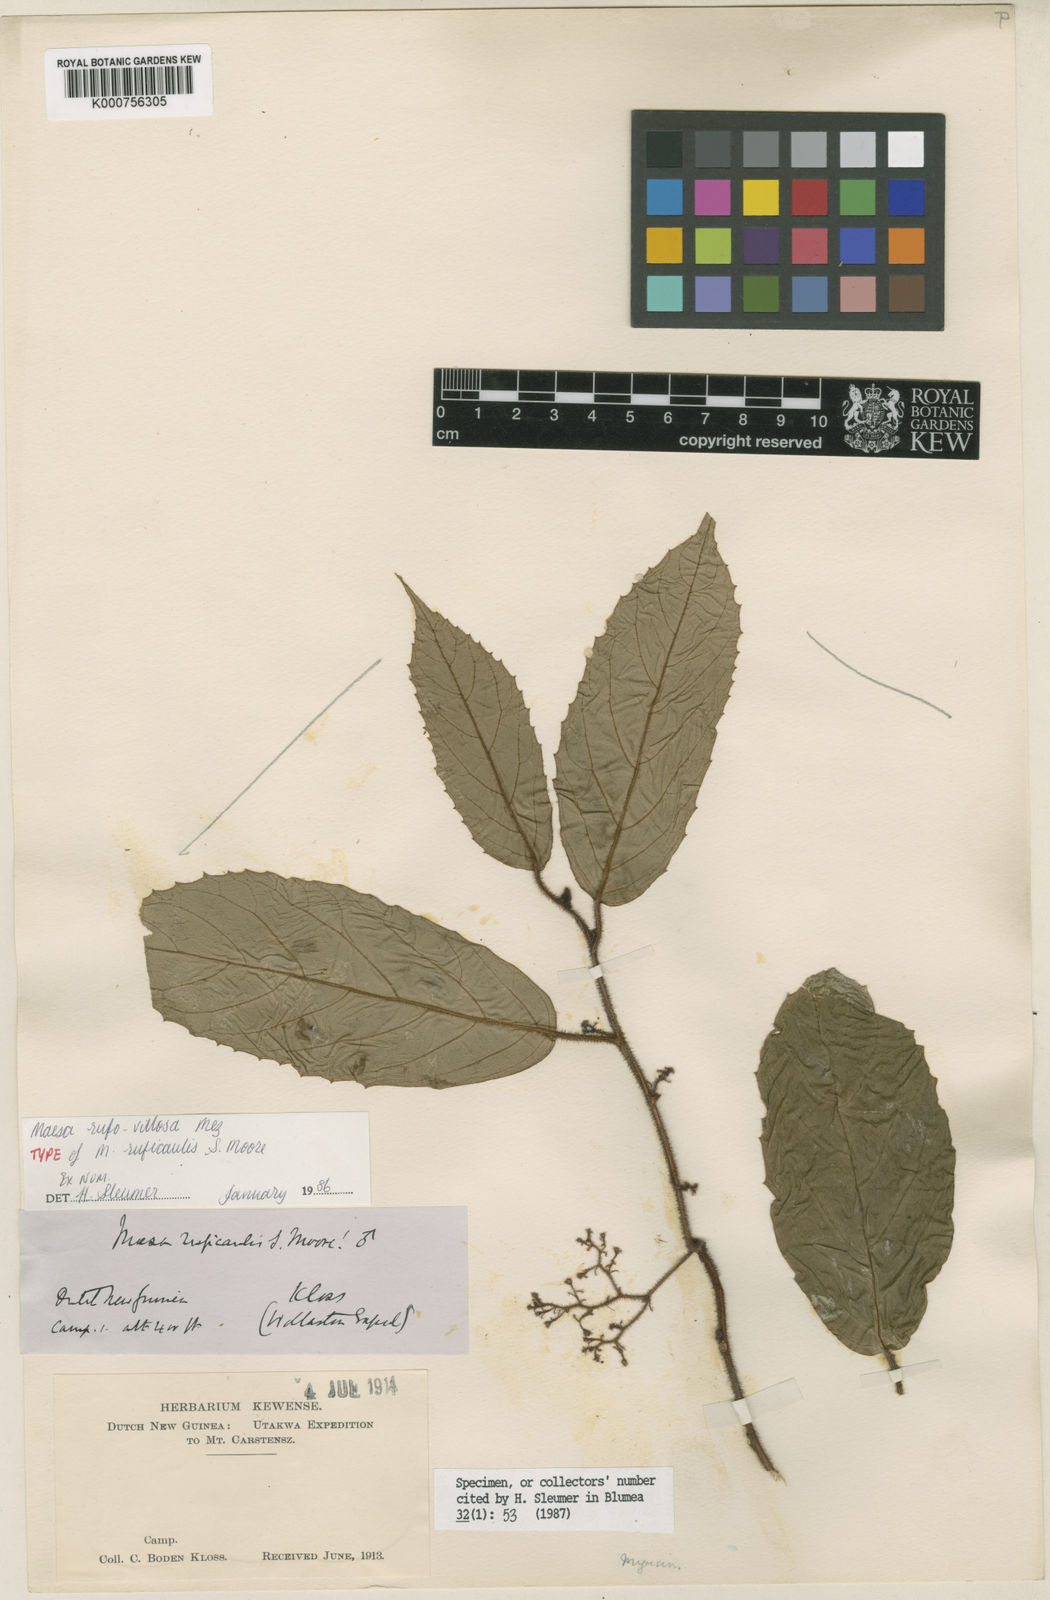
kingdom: Plantae
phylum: Tracheophyta
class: Magnoliopsida
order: Ericales
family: Primulaceae
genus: Maesa
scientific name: Maesa ruficaulis
